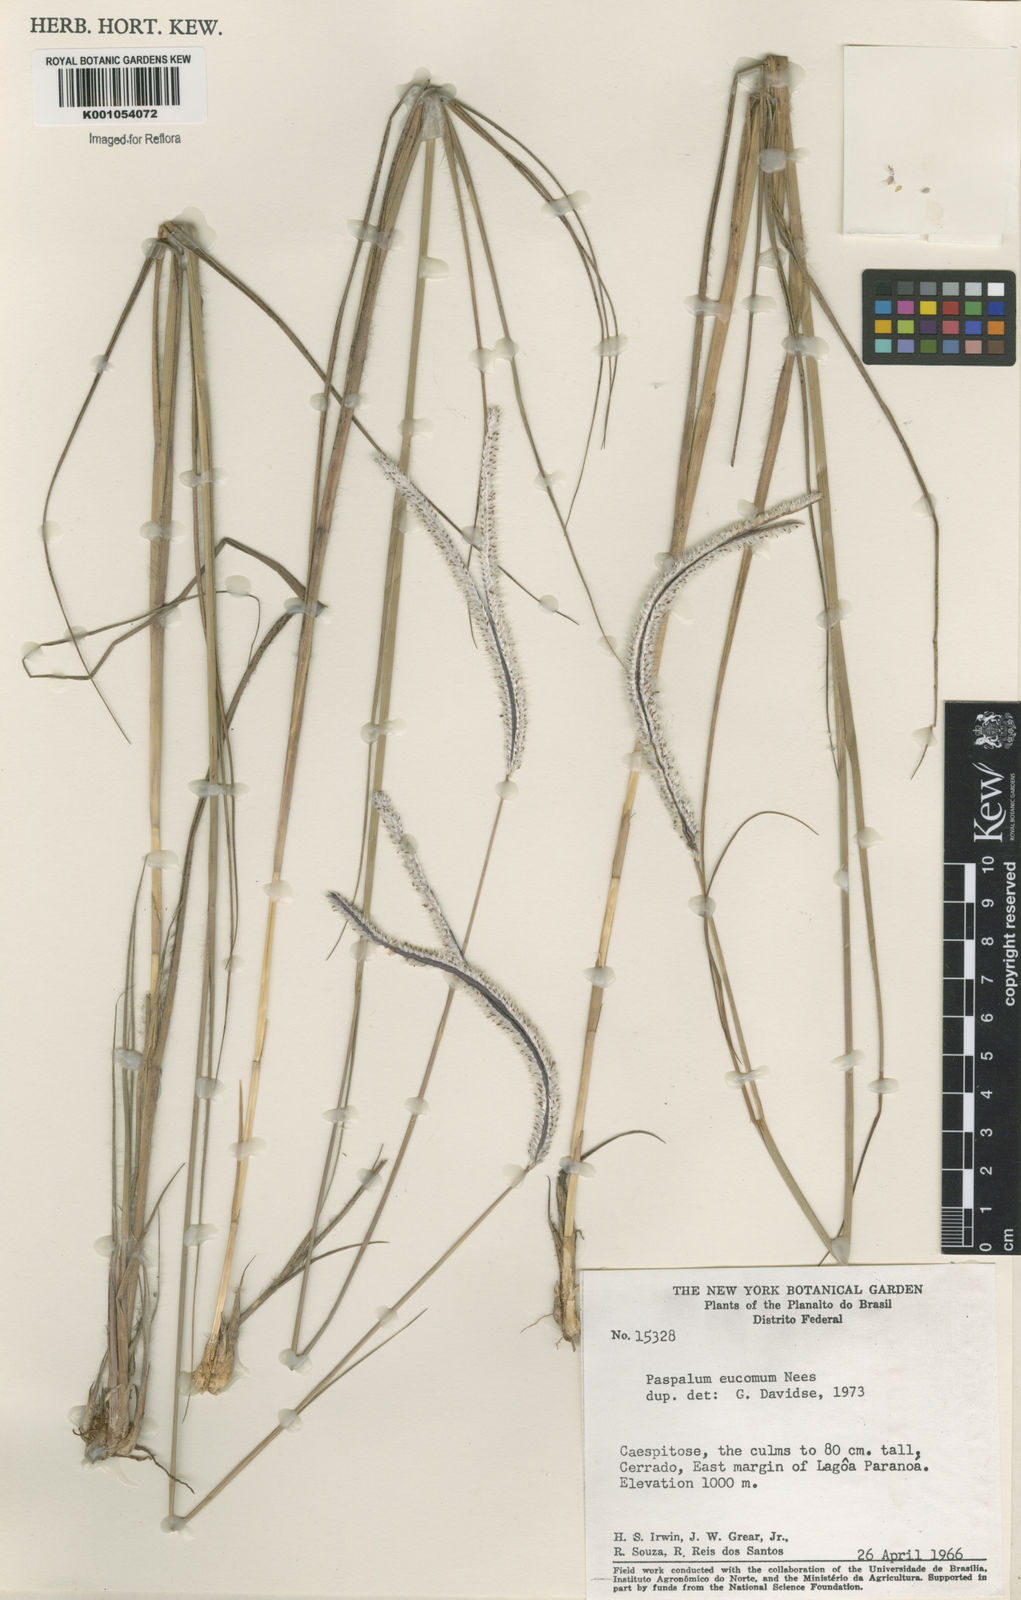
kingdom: Plantae
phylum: Tracheophyta
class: Liliopsida
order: Poales
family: Poaceae
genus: Paspalum
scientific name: Paspalum eucomum
